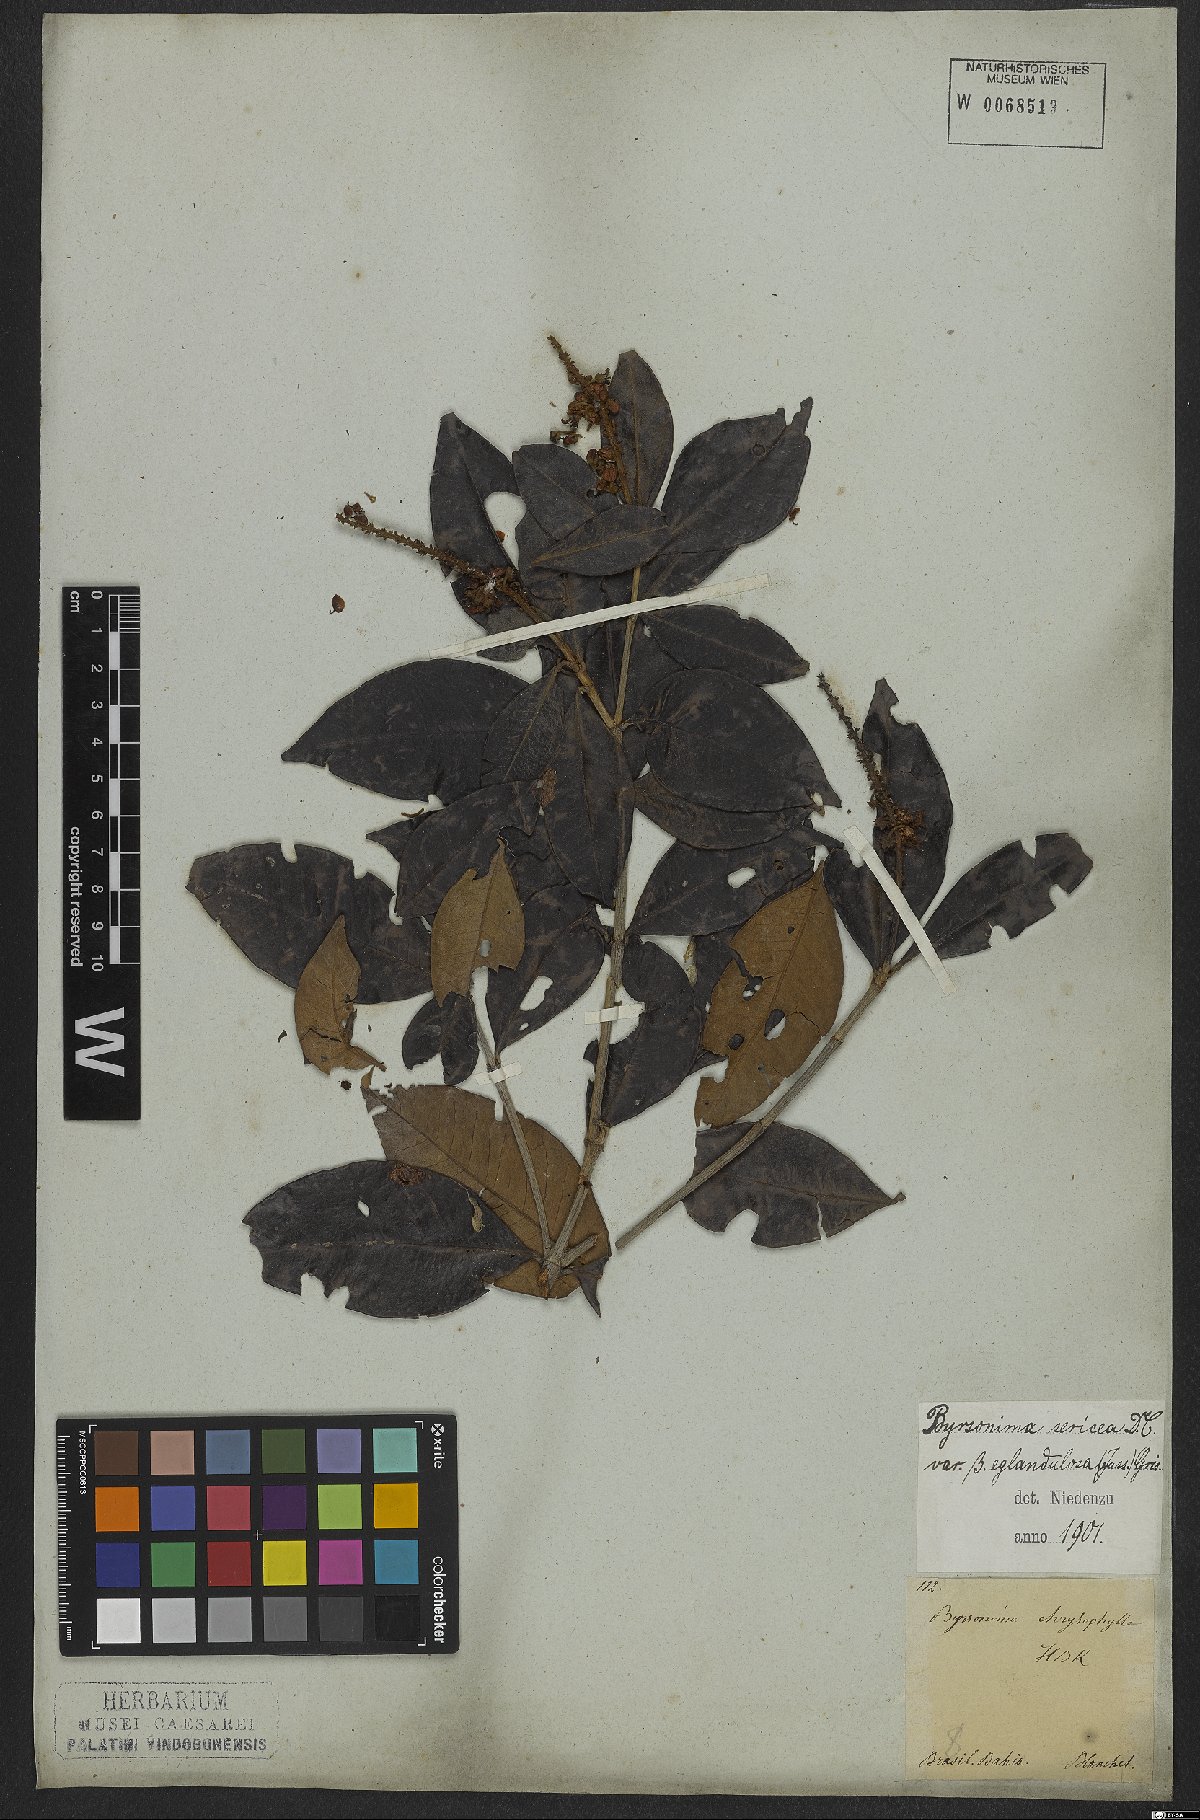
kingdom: Plantae
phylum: Tracheophyta
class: Magnoliopsida
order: Malpighiales
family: Malpighiaceae
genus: Byrsonima
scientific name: Byrsonima sericea
